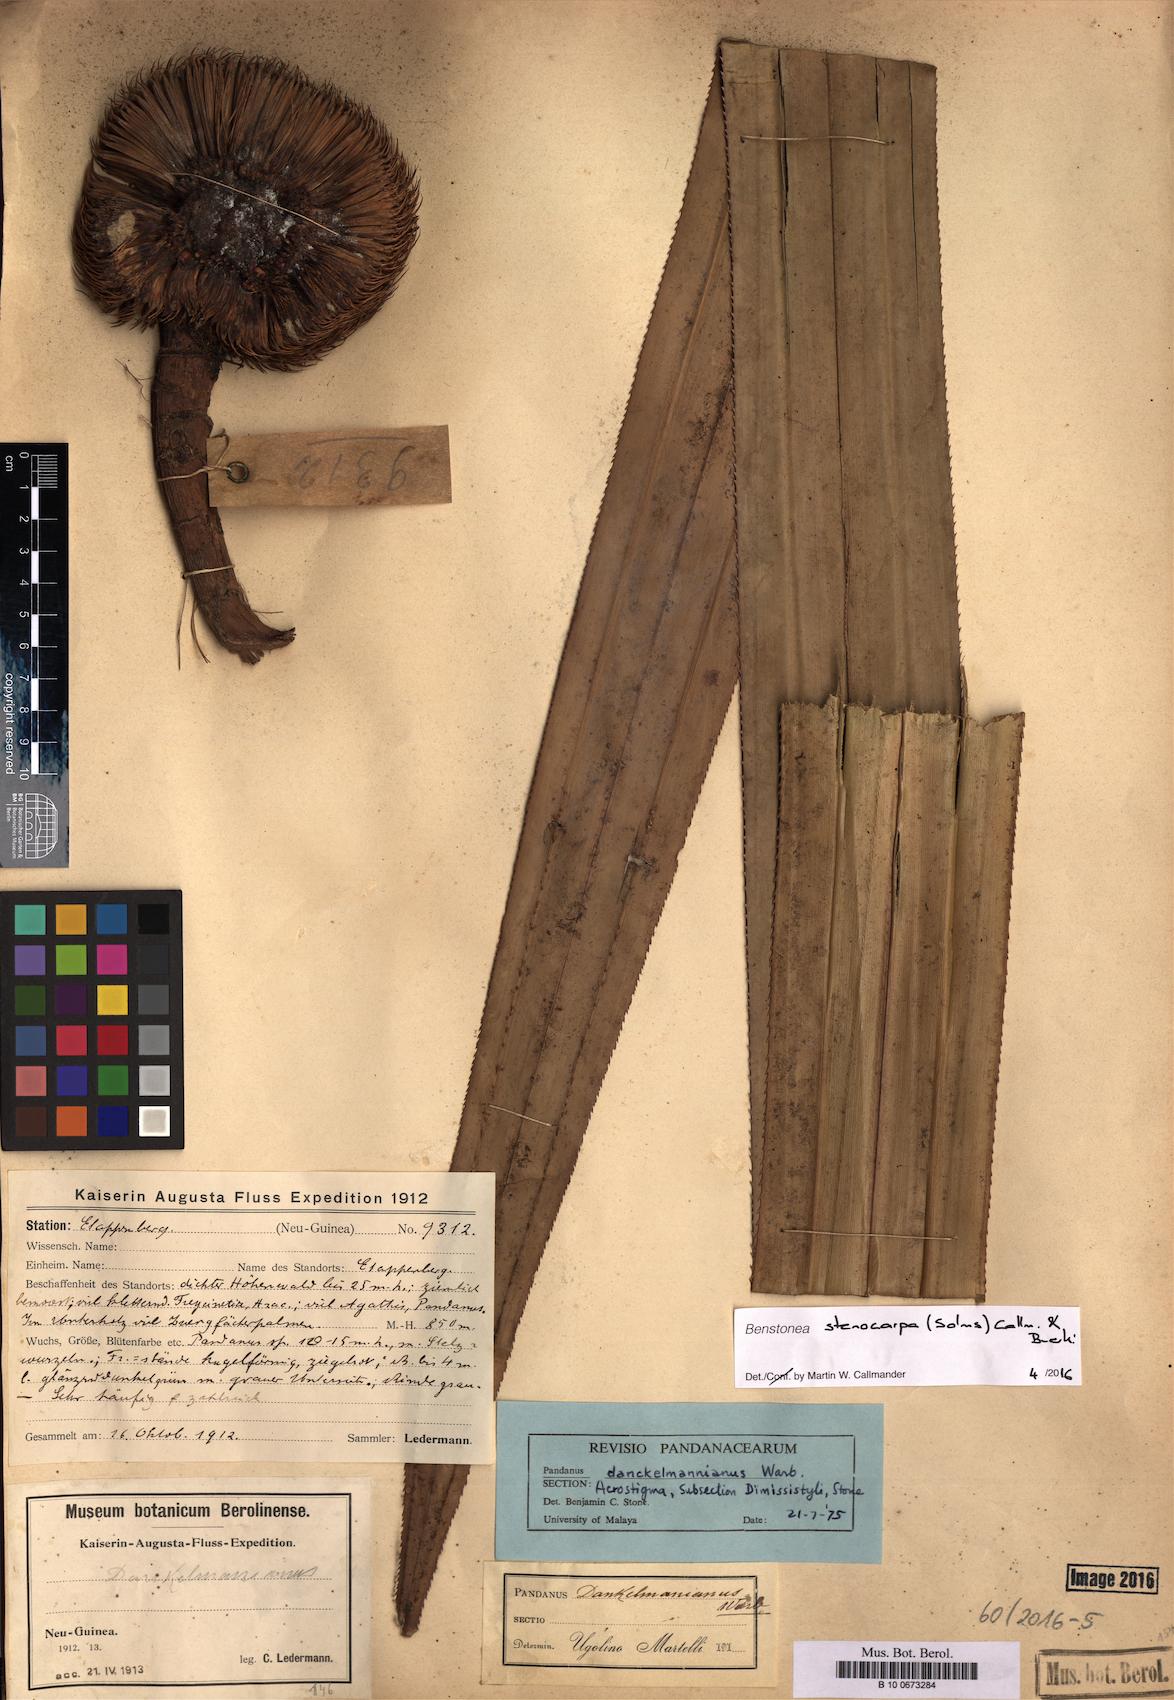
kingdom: Plantae
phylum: Tracheophyta
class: Liliopsida
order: Pandanales
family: Pandanaceae
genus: Benstonea
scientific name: Benstonea stenocarpa
